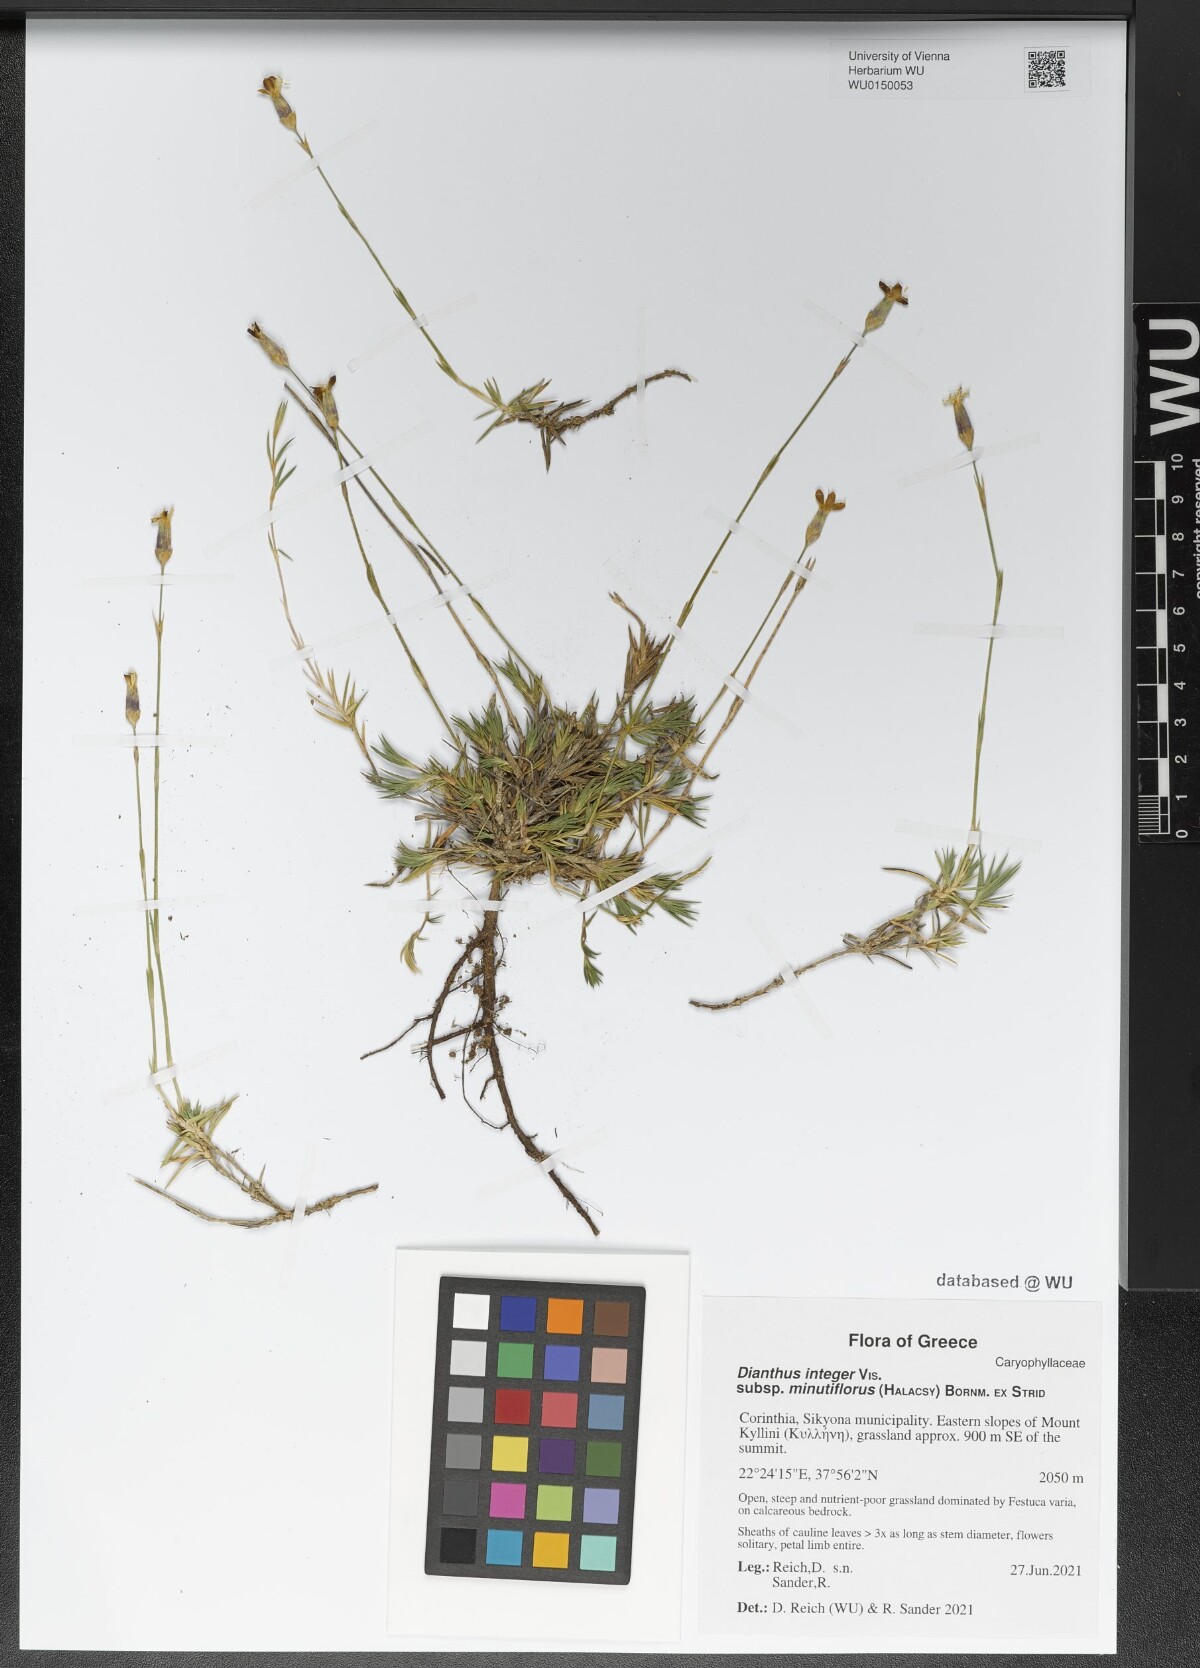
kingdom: Plantae
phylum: Tracheophyta
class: Magnoliopsida
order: Caryophyllales
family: Caryophyllaceae
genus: Dianthus
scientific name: Dianthus integer
